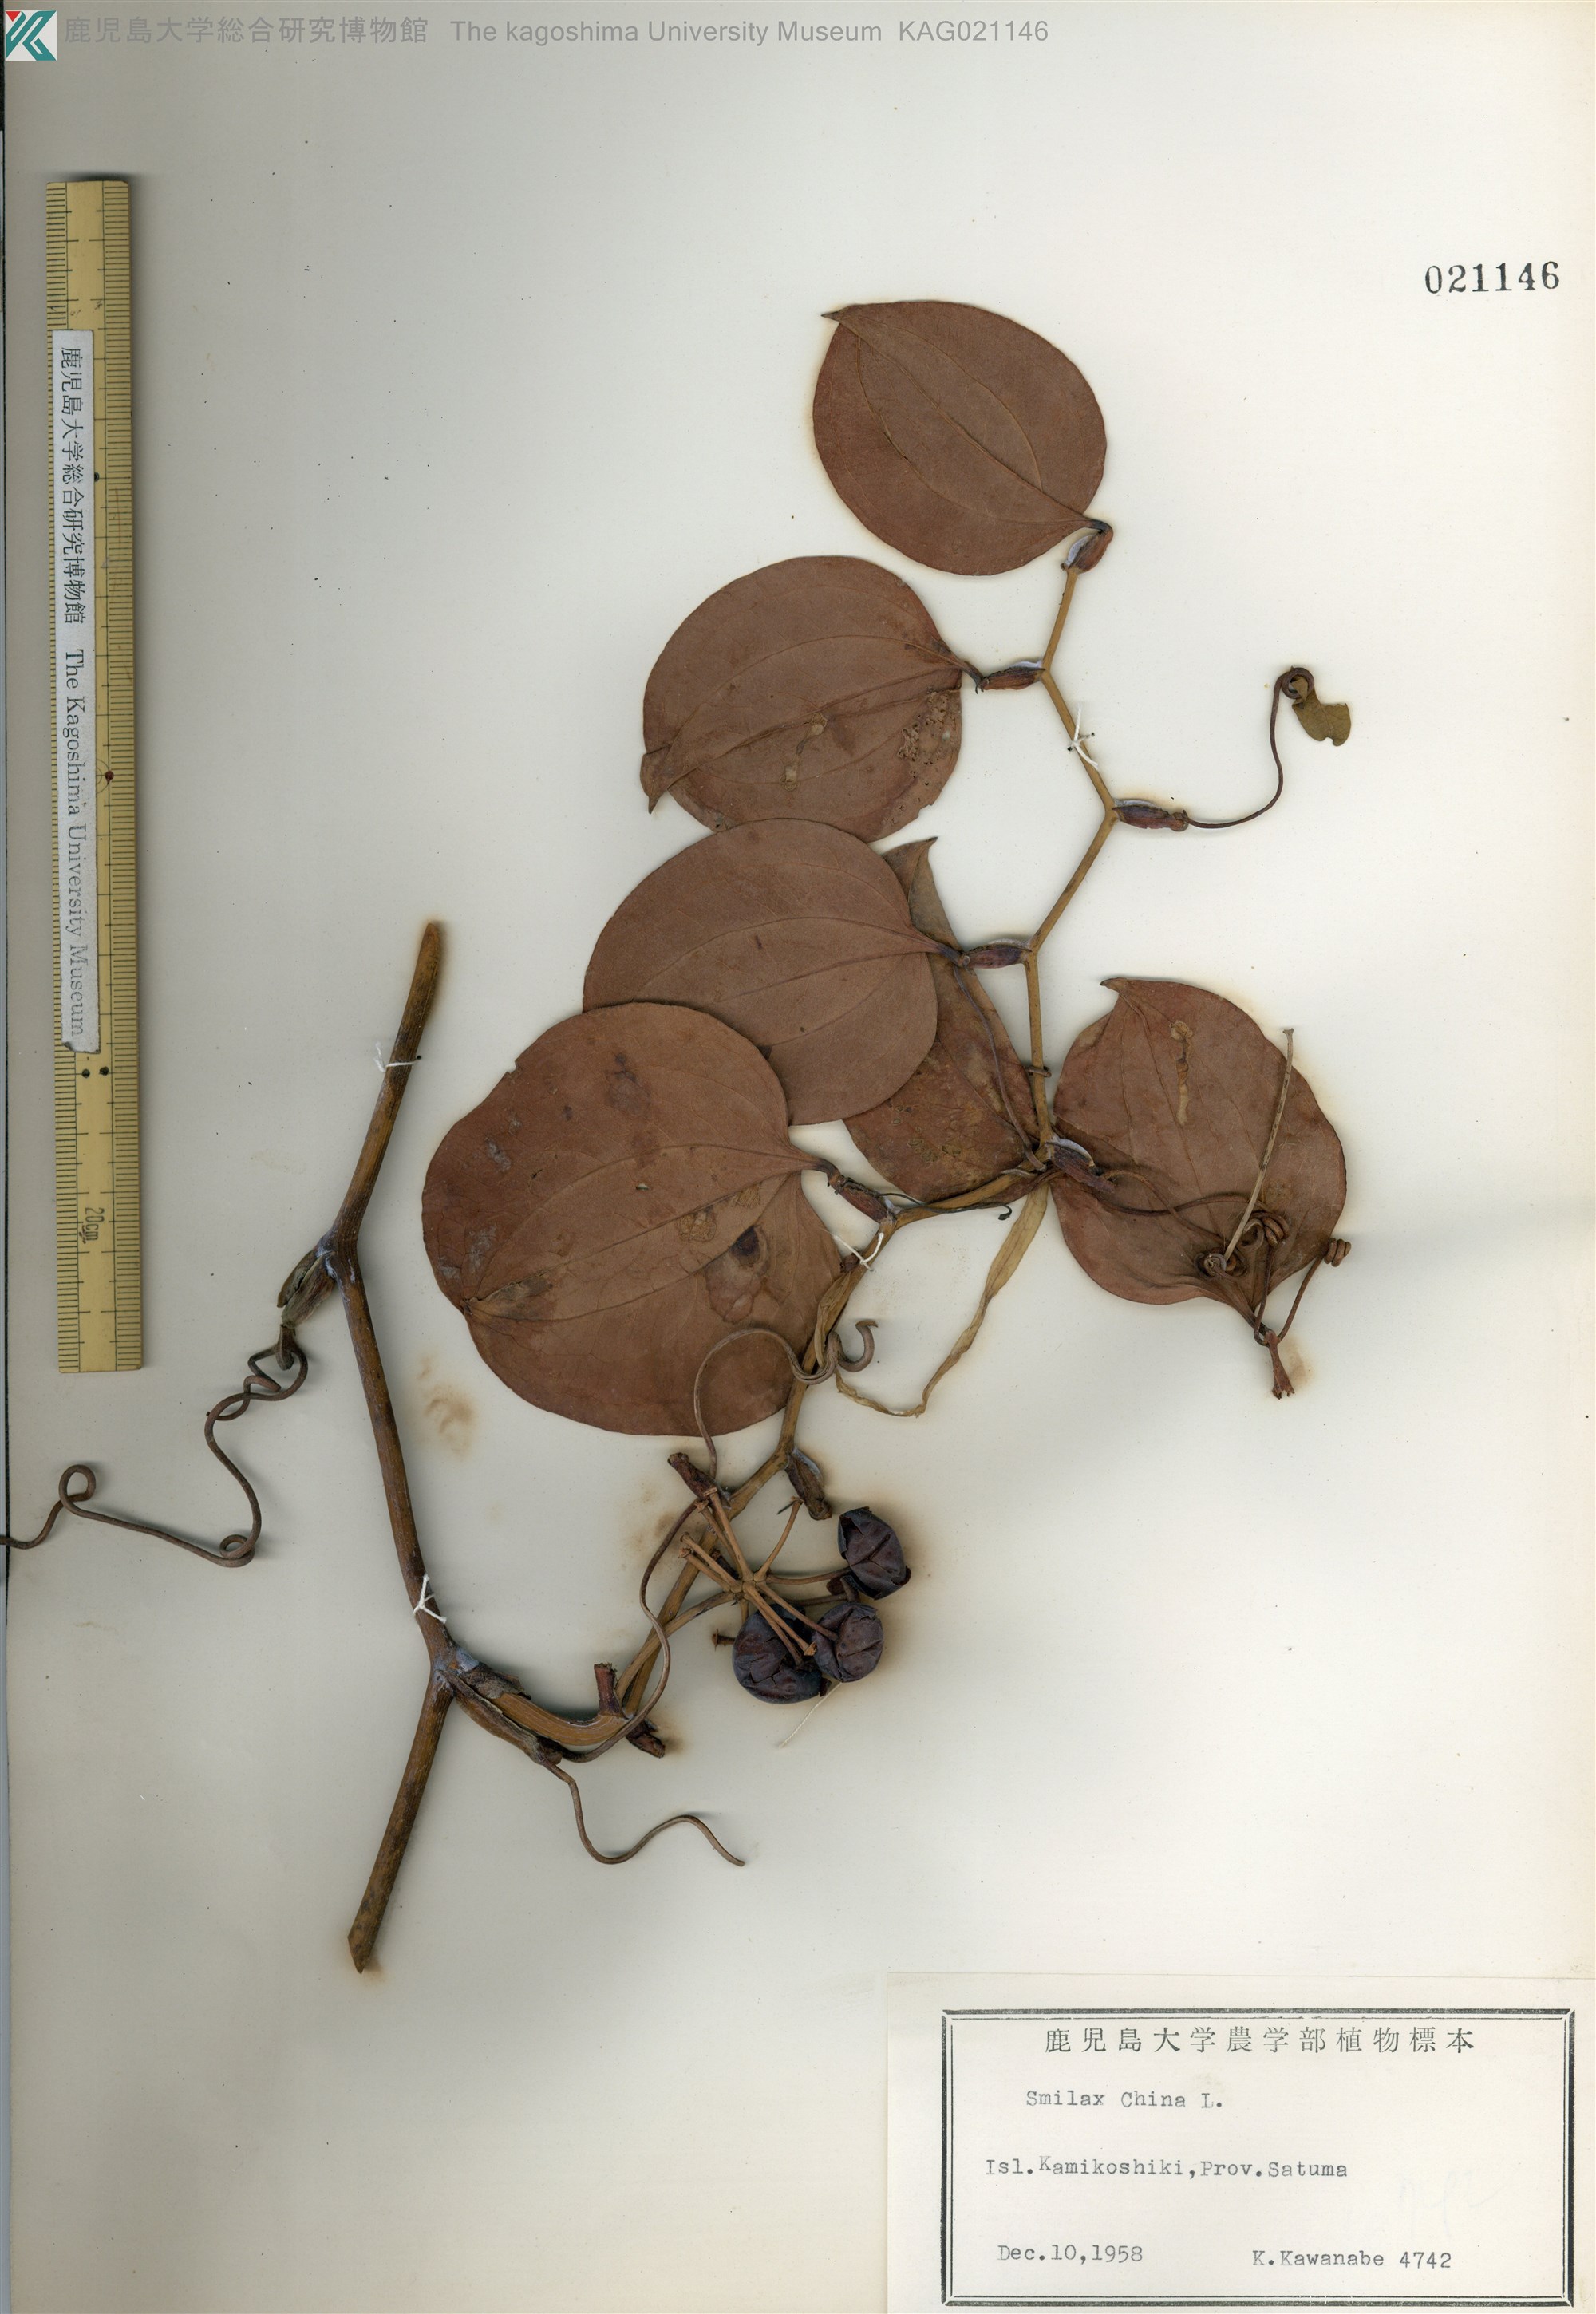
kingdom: Plantae
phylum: Tracheophyta
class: Liliopsida
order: Liliales
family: Smilacaceae
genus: Smilax
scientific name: Smilax china
